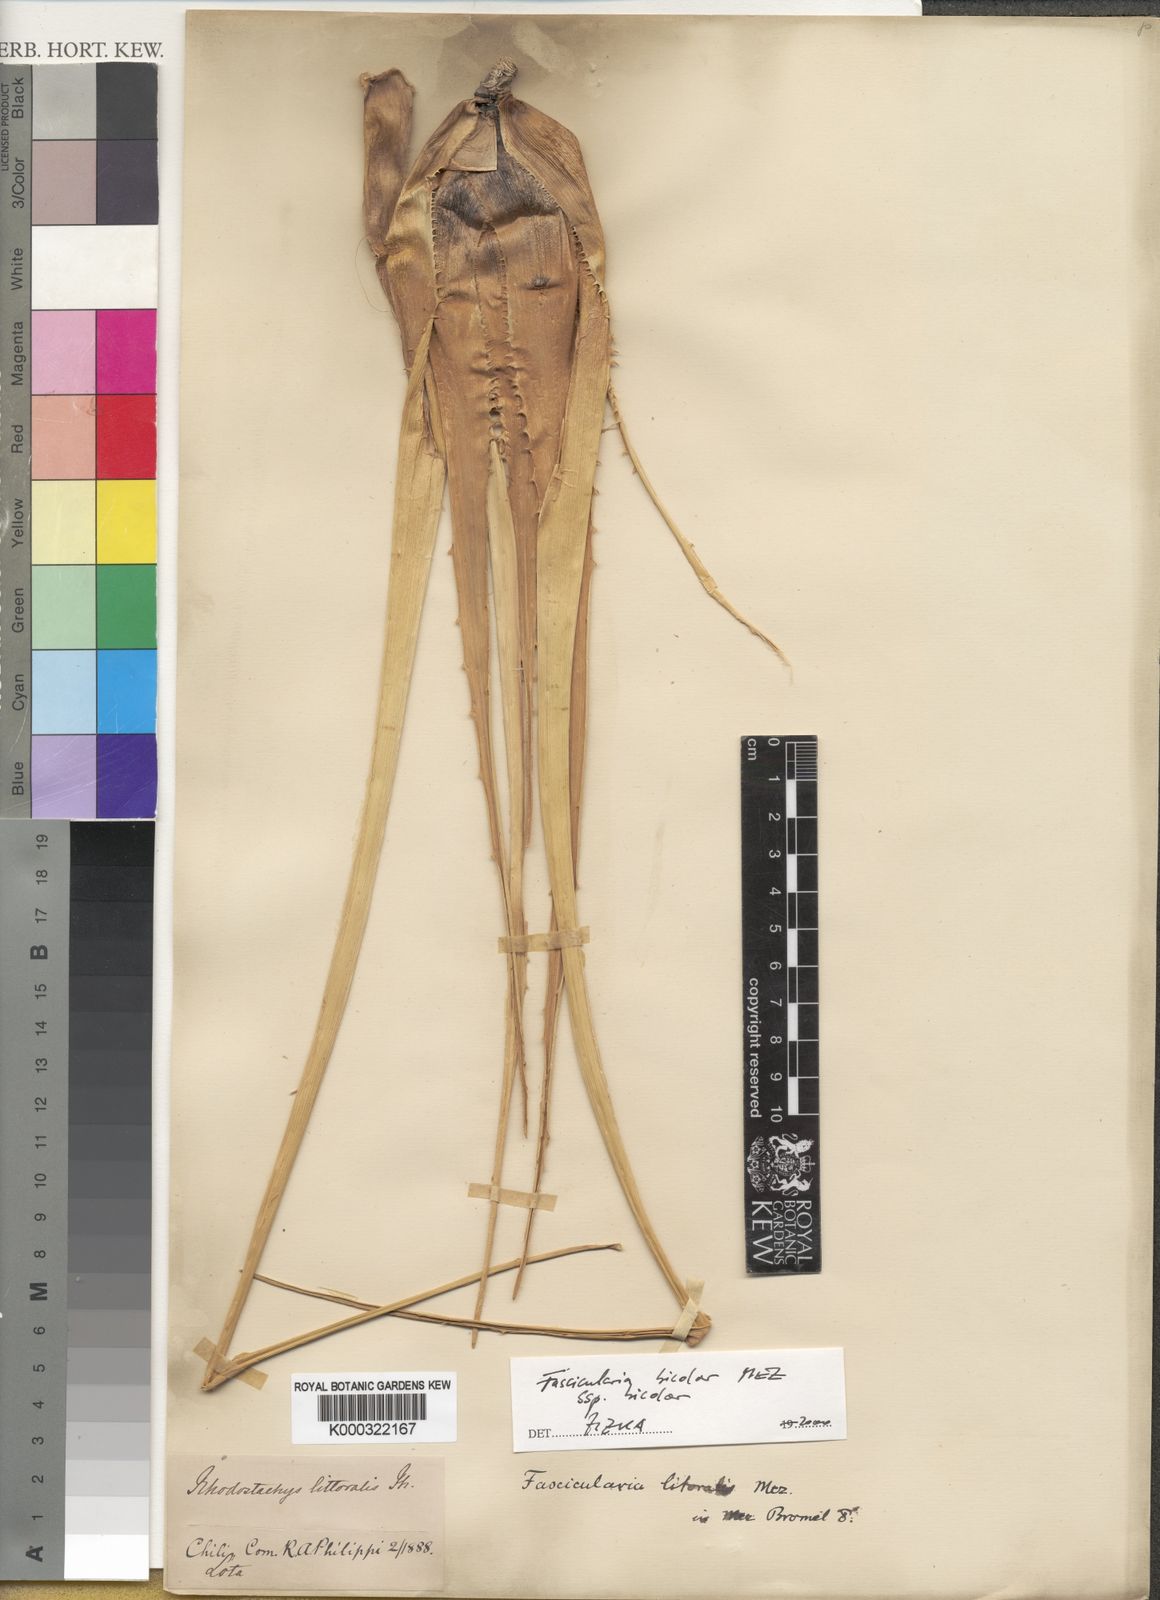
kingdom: Plantae
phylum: Tracheophyta
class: Liliopsida
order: Poales
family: Bromeliaceae
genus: Fascicularia
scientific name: Fascicularia bicolor
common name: Rhodostachys
